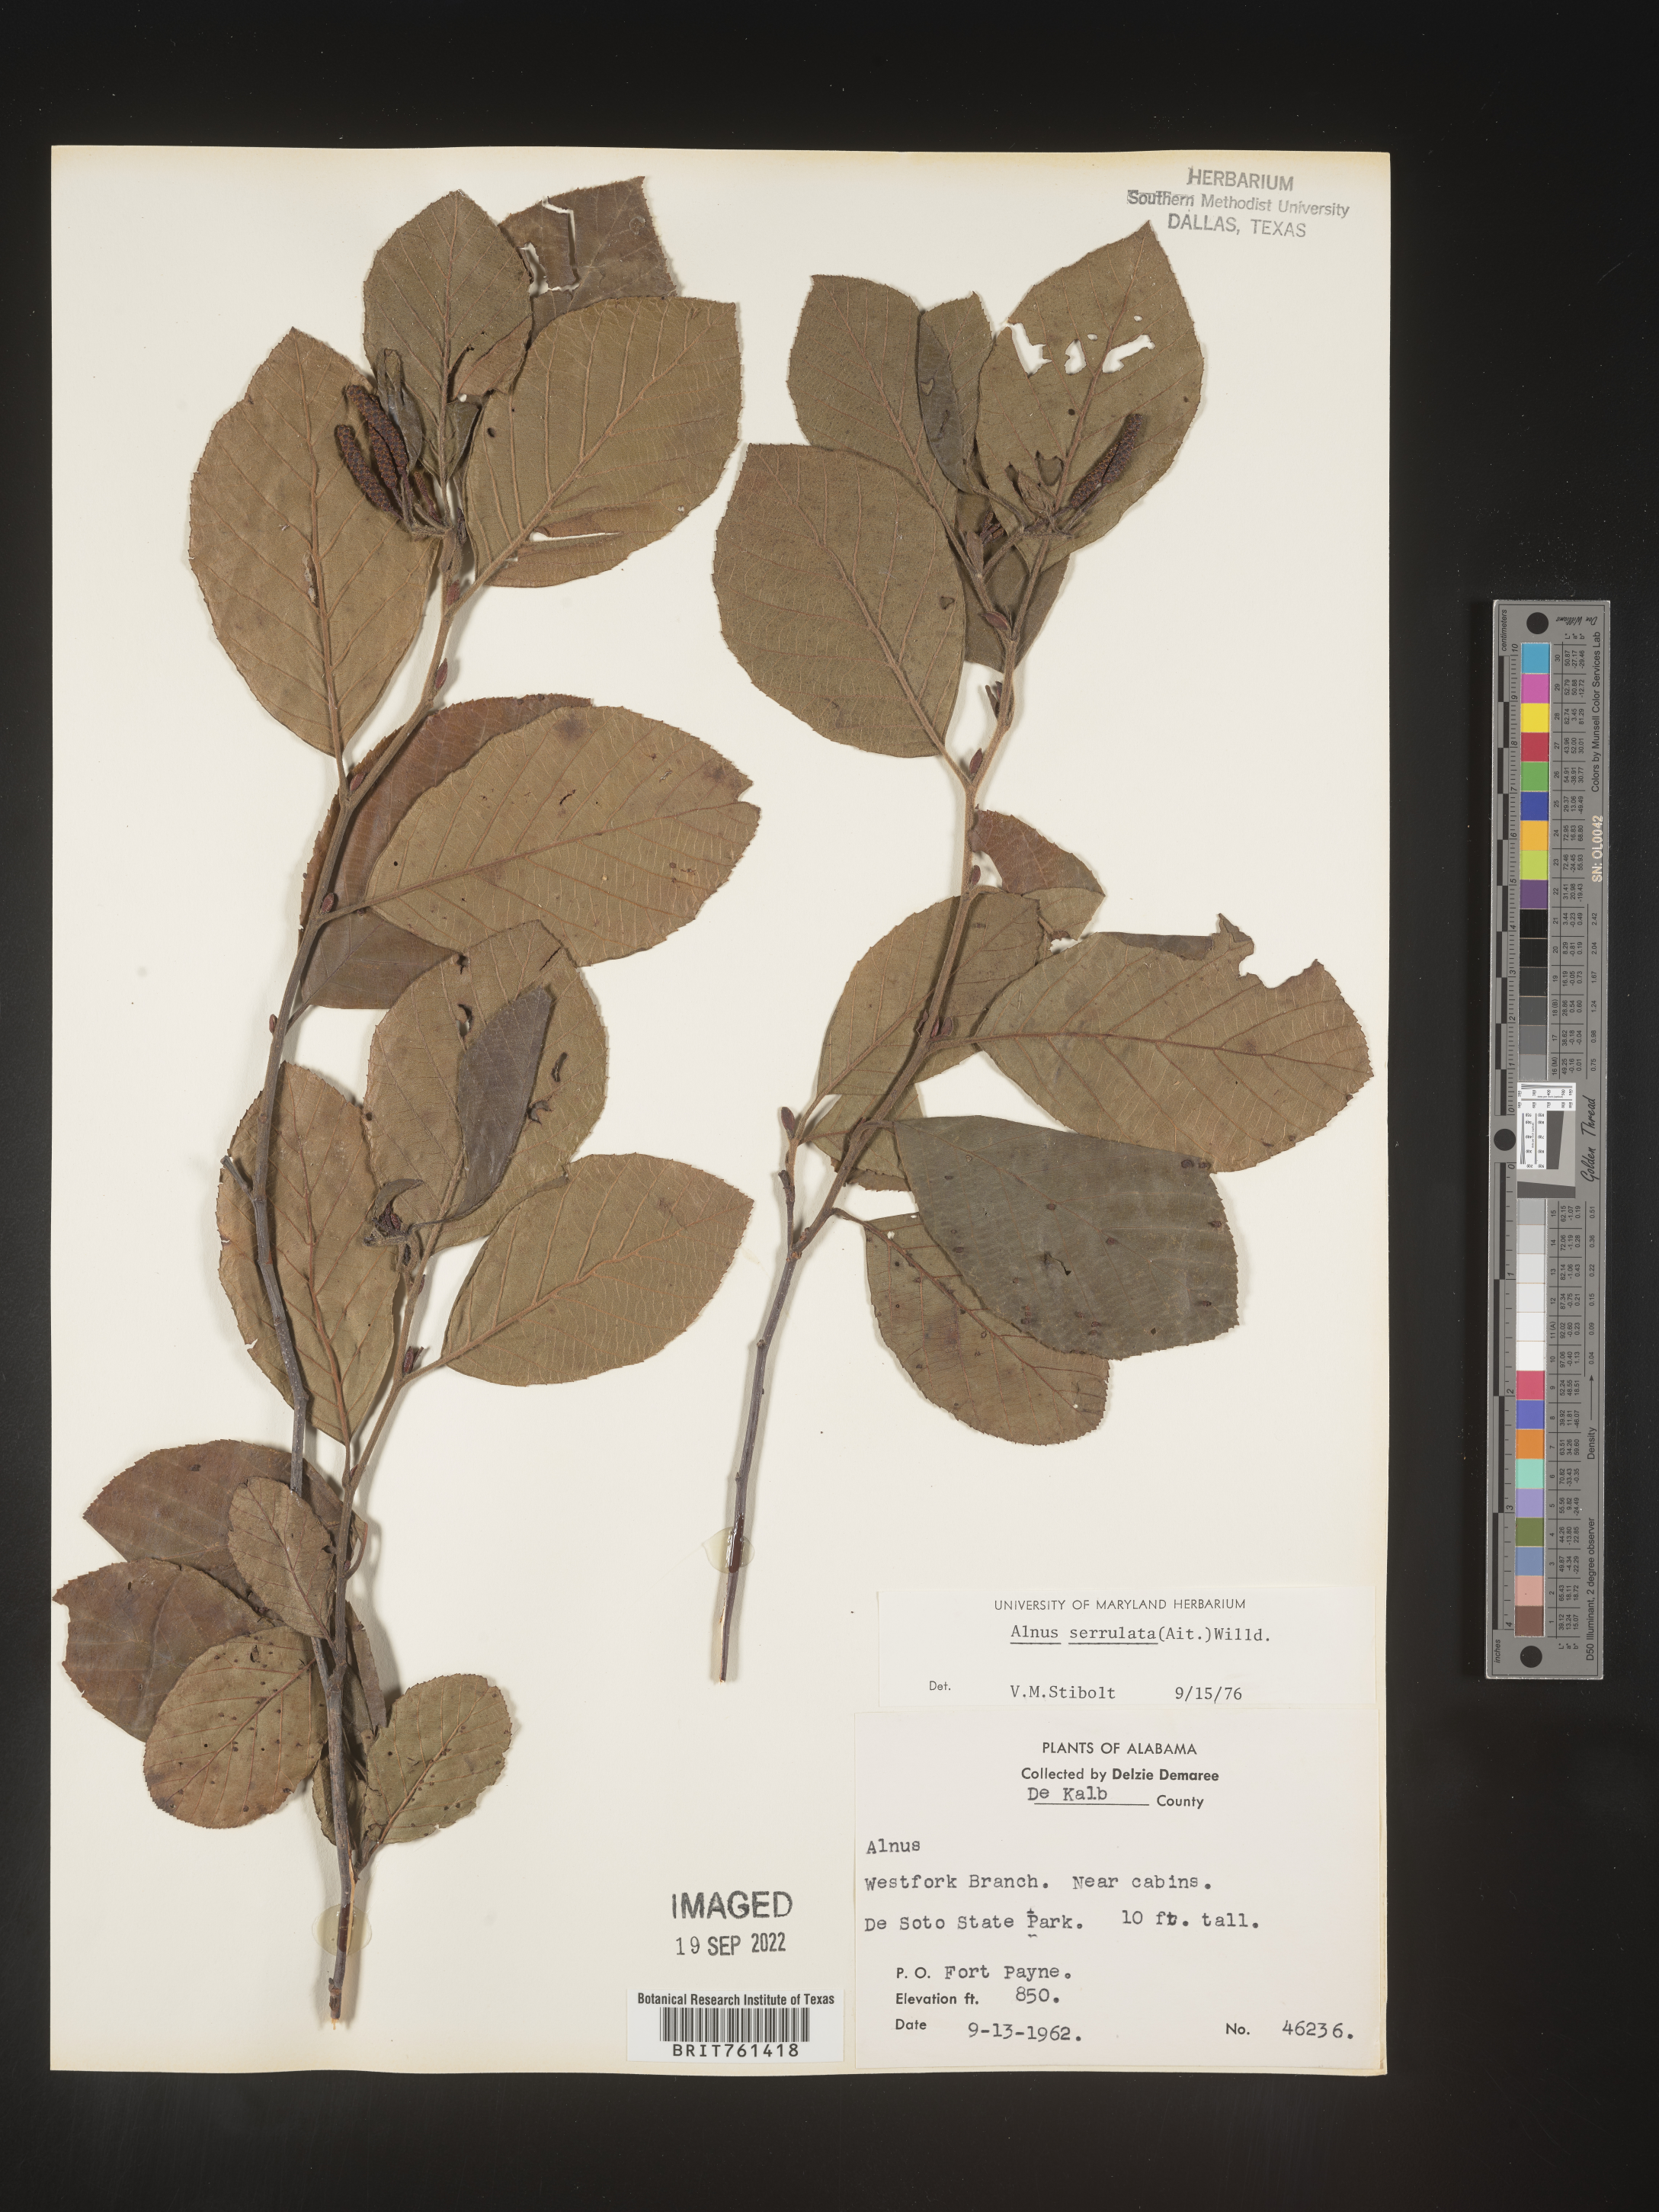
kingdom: Plantae
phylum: Tracheophyta
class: Magnoliopsida
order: Fagales
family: Betulaceae
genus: Alnus
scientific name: Alnus serrulata
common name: Hazel alder
